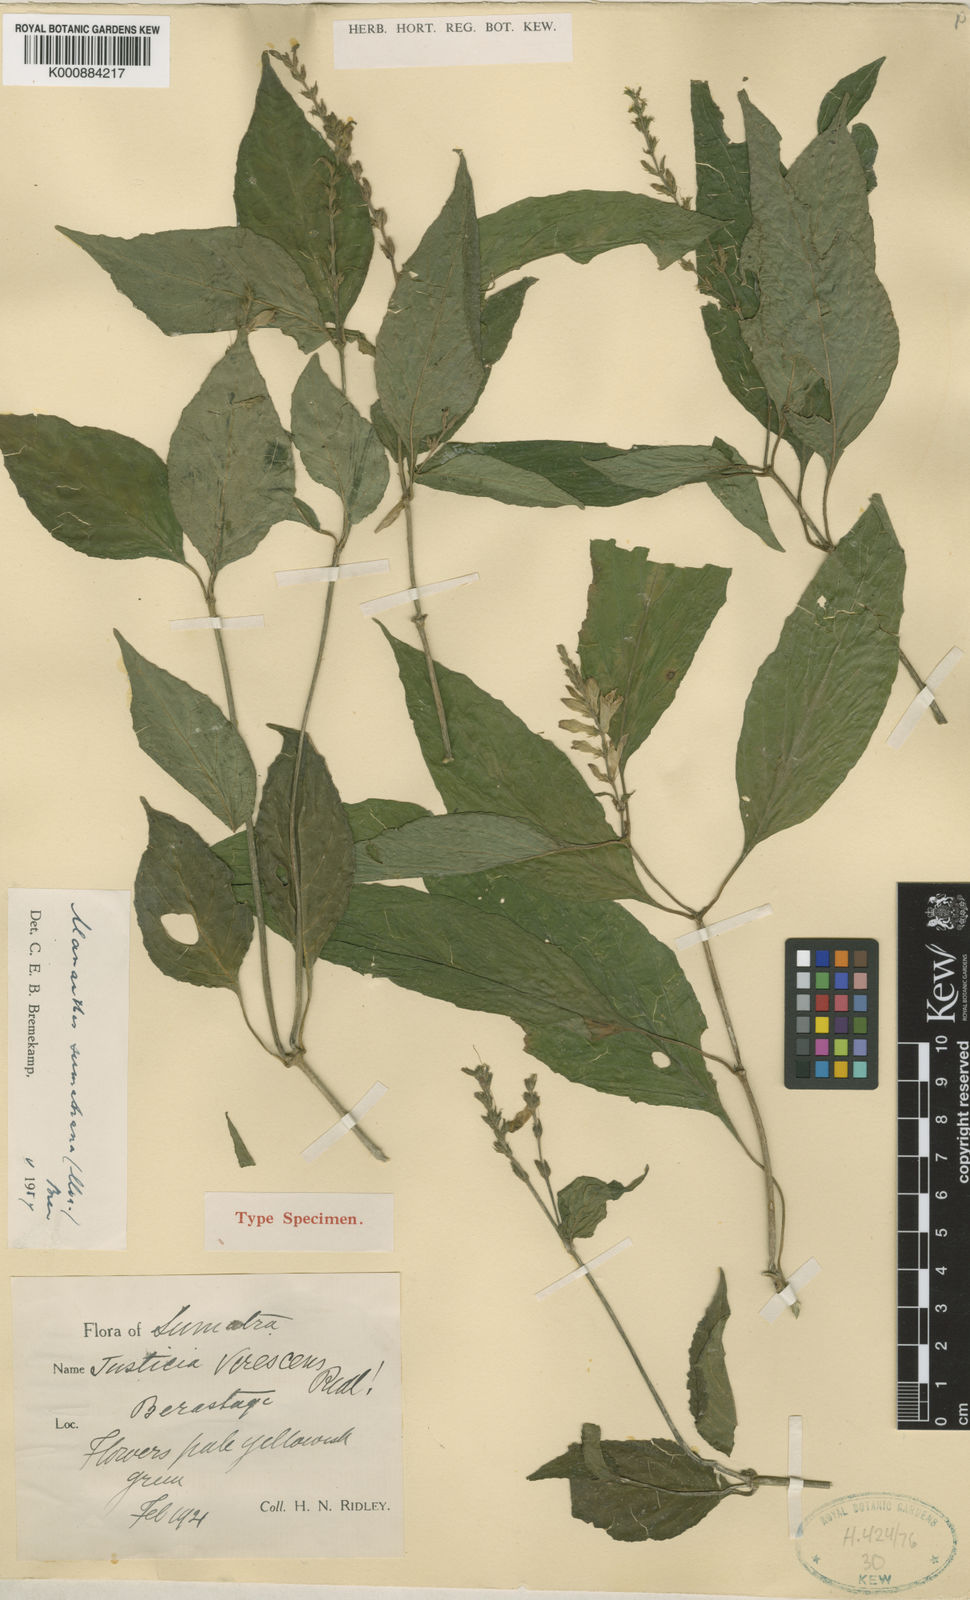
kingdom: Plantae
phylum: Tracheophyta
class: Magnoliopsida
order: Lamiales
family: Acanthaceae
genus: Justicia
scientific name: Justicia
